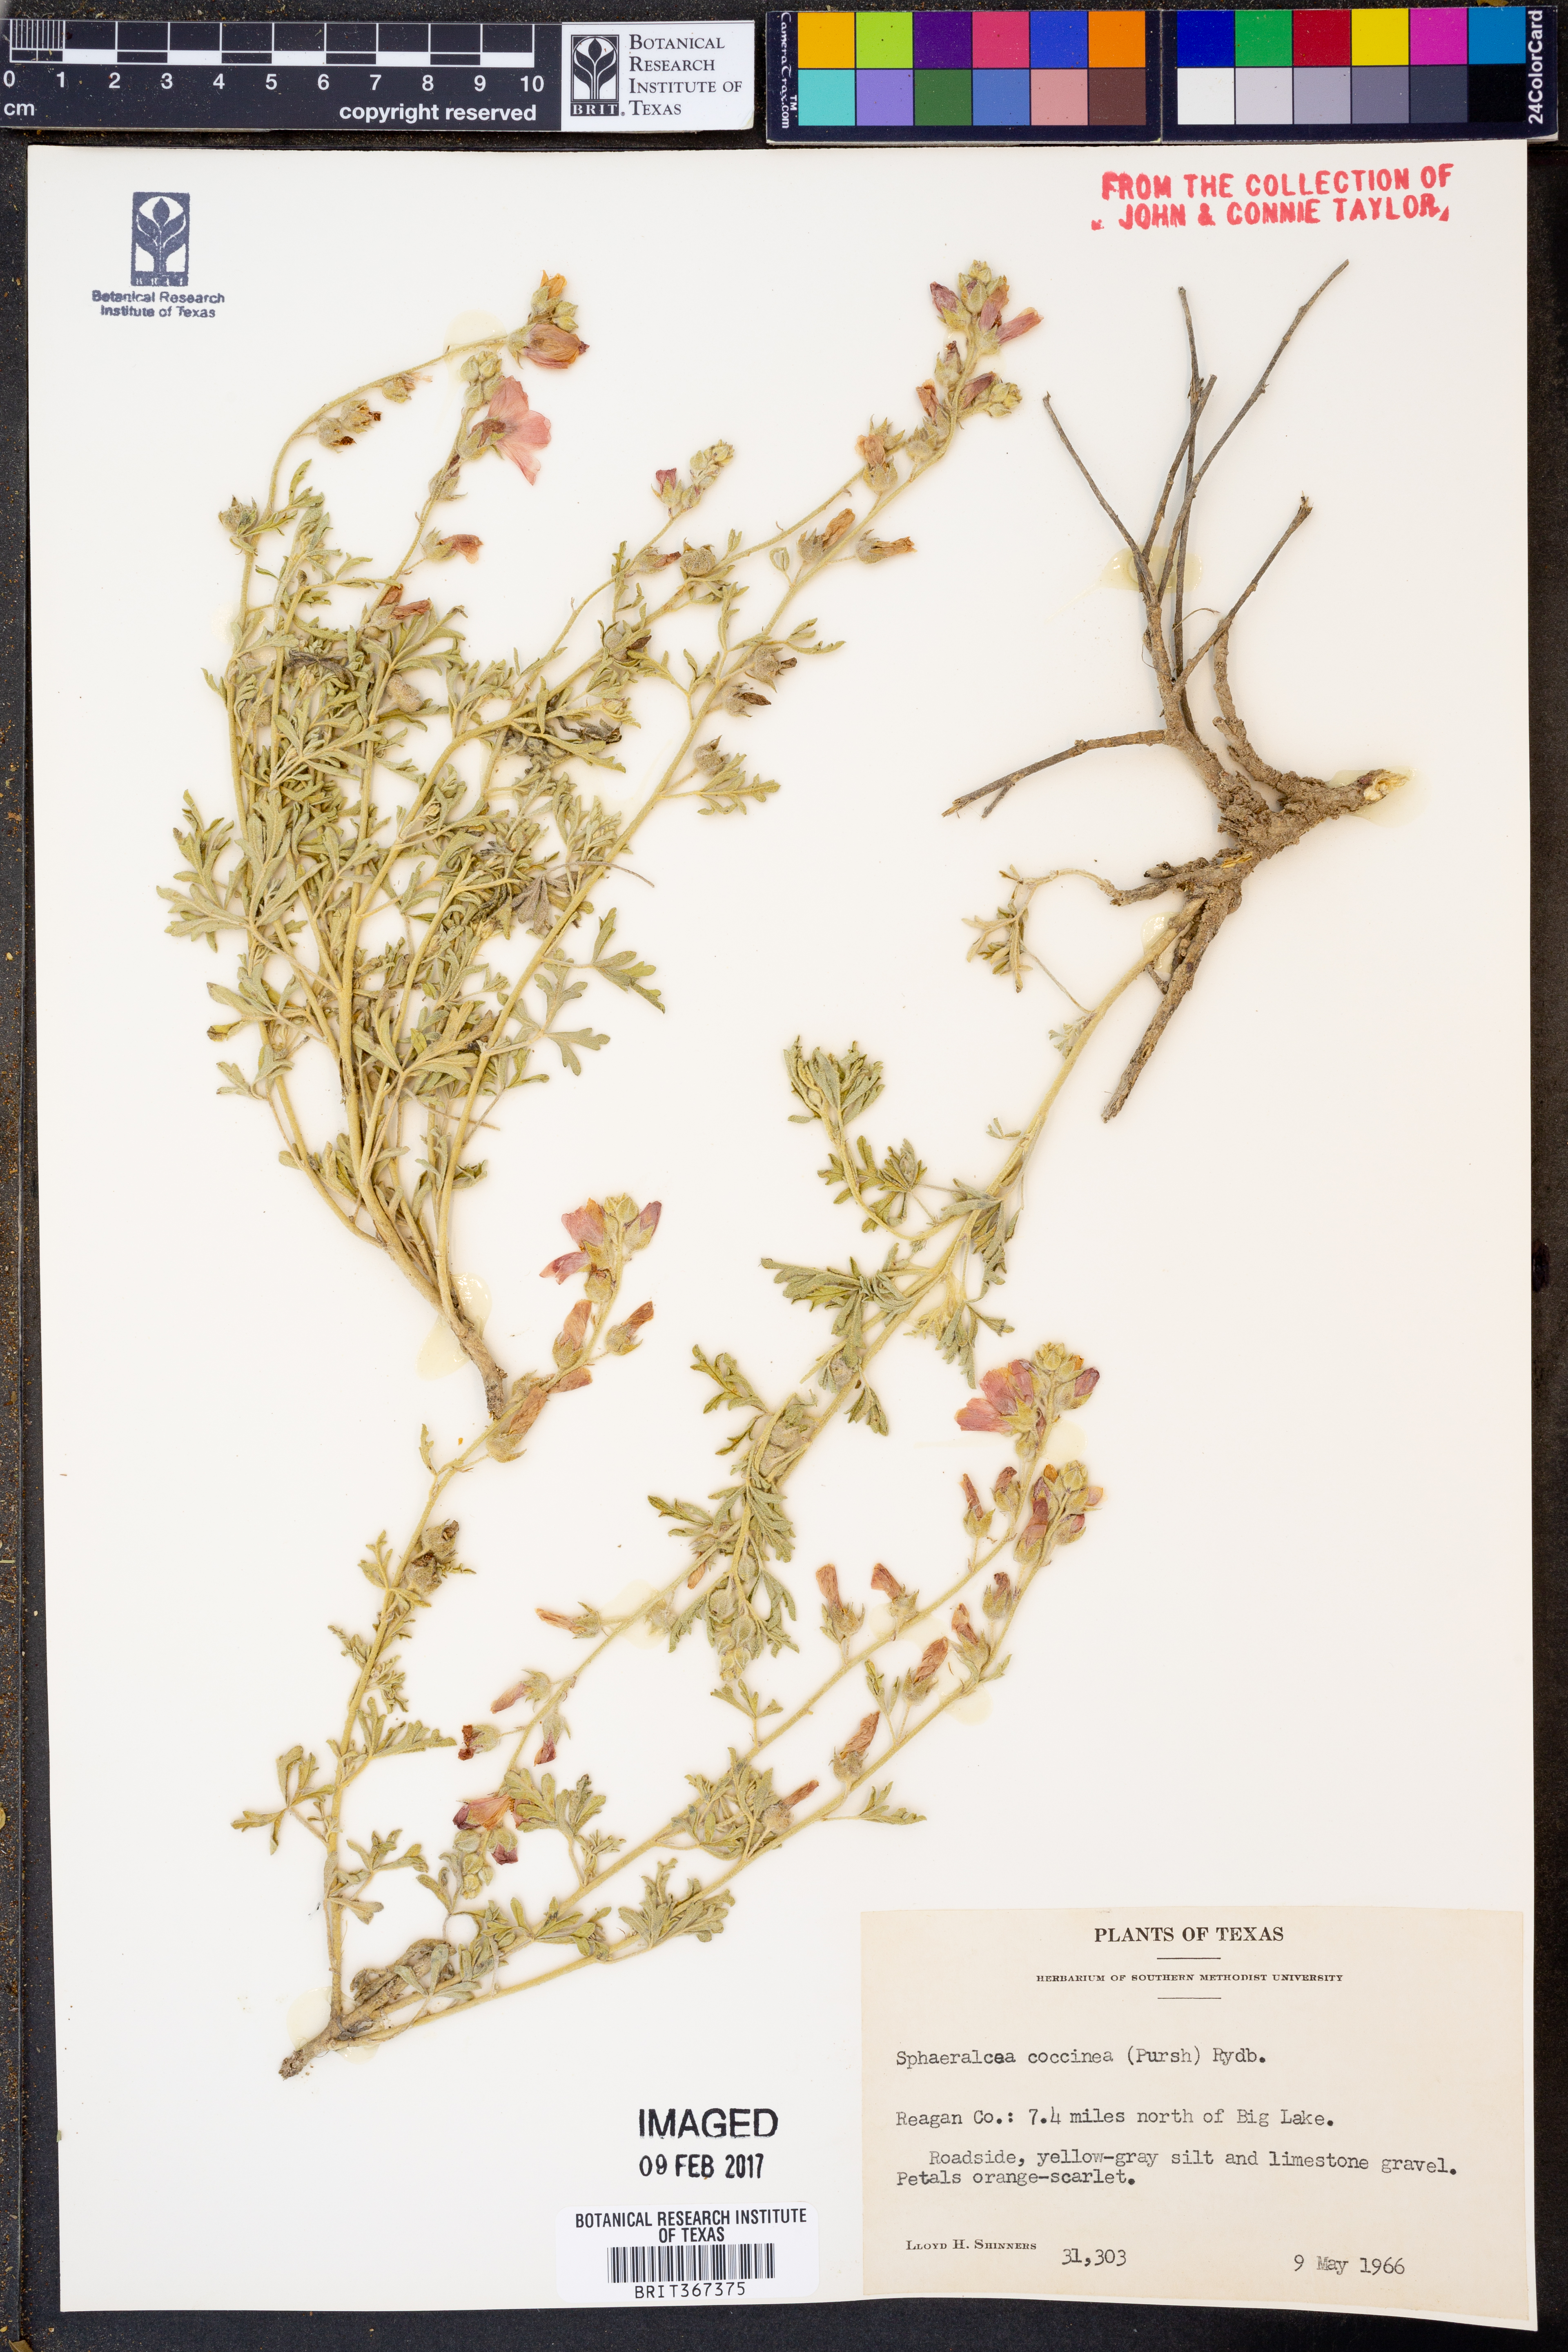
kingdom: Plantae
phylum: Tracheophyta
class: Magnoliopsida
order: Malvales
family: Malvaceae
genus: Sphaeralcea
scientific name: Sphaeralcea coccinea
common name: Moss-rose
